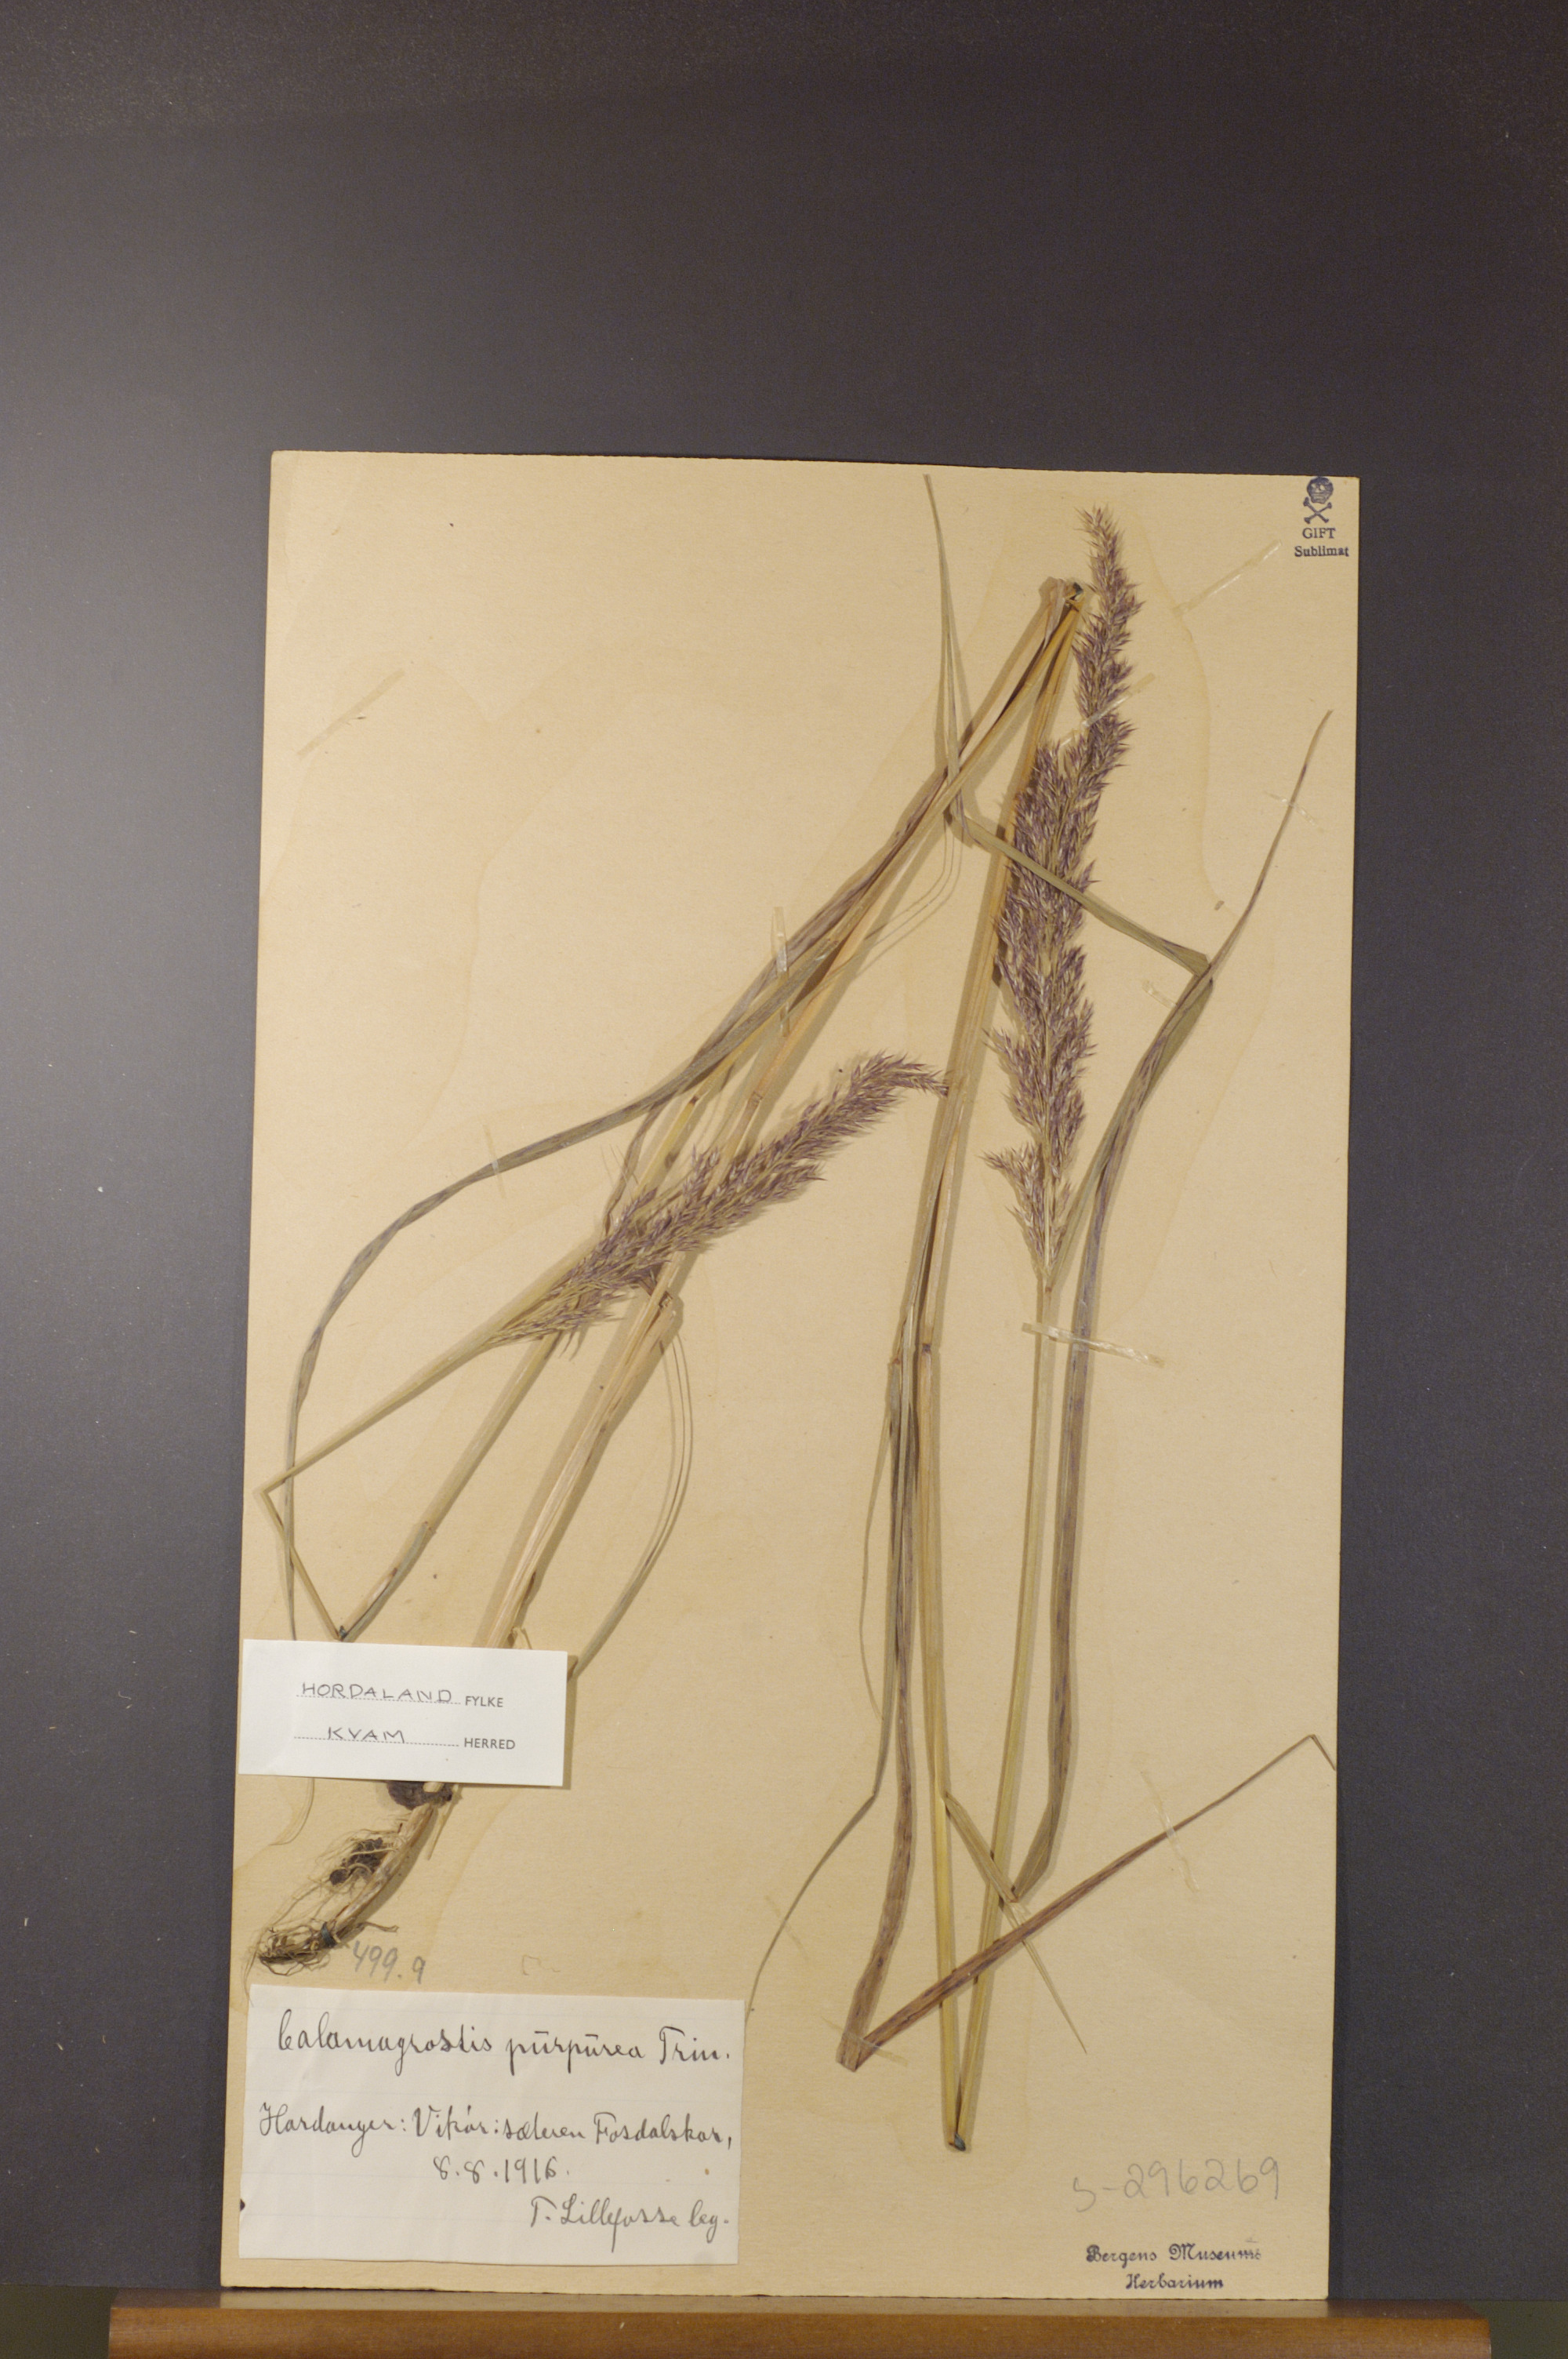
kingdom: Plantae
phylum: Tracheophyta
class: Liliopsida
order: Poales
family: Poaceae
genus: Calamagrostis
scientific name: Calamagrostis purpurea
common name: Scandinavian small-reed
